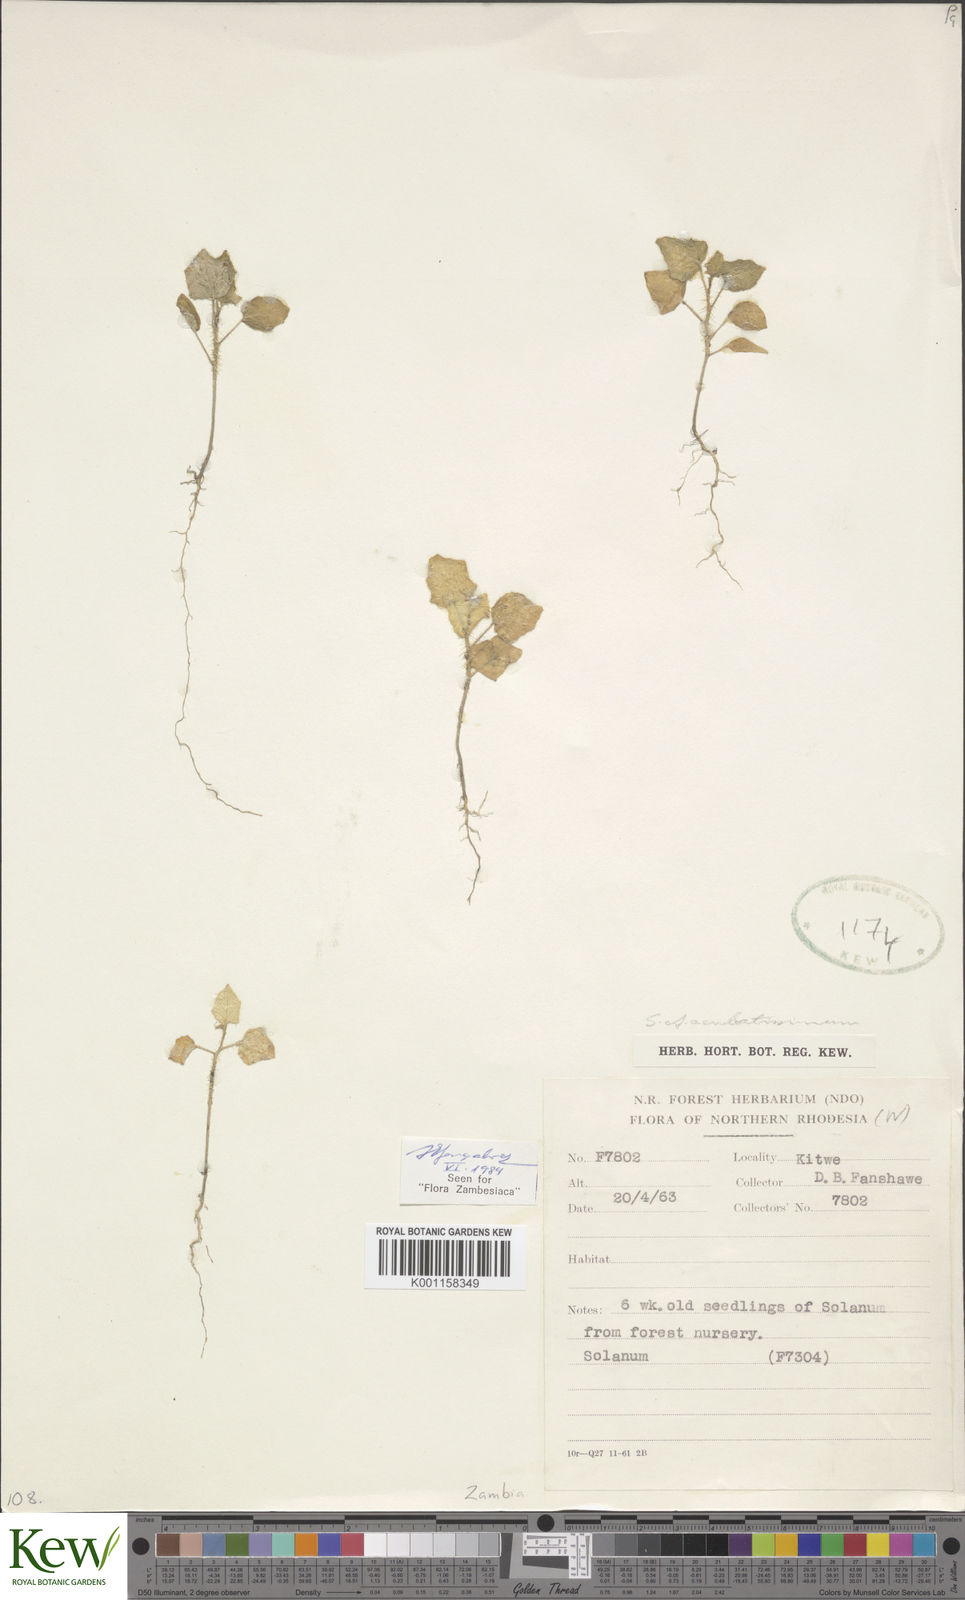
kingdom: Plantae
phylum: Tracheophyta
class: Magnoliopsida
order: Solanales
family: Solanaceae
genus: Solanum
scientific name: Solanum aculeatissimum
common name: Dutch eggplant
